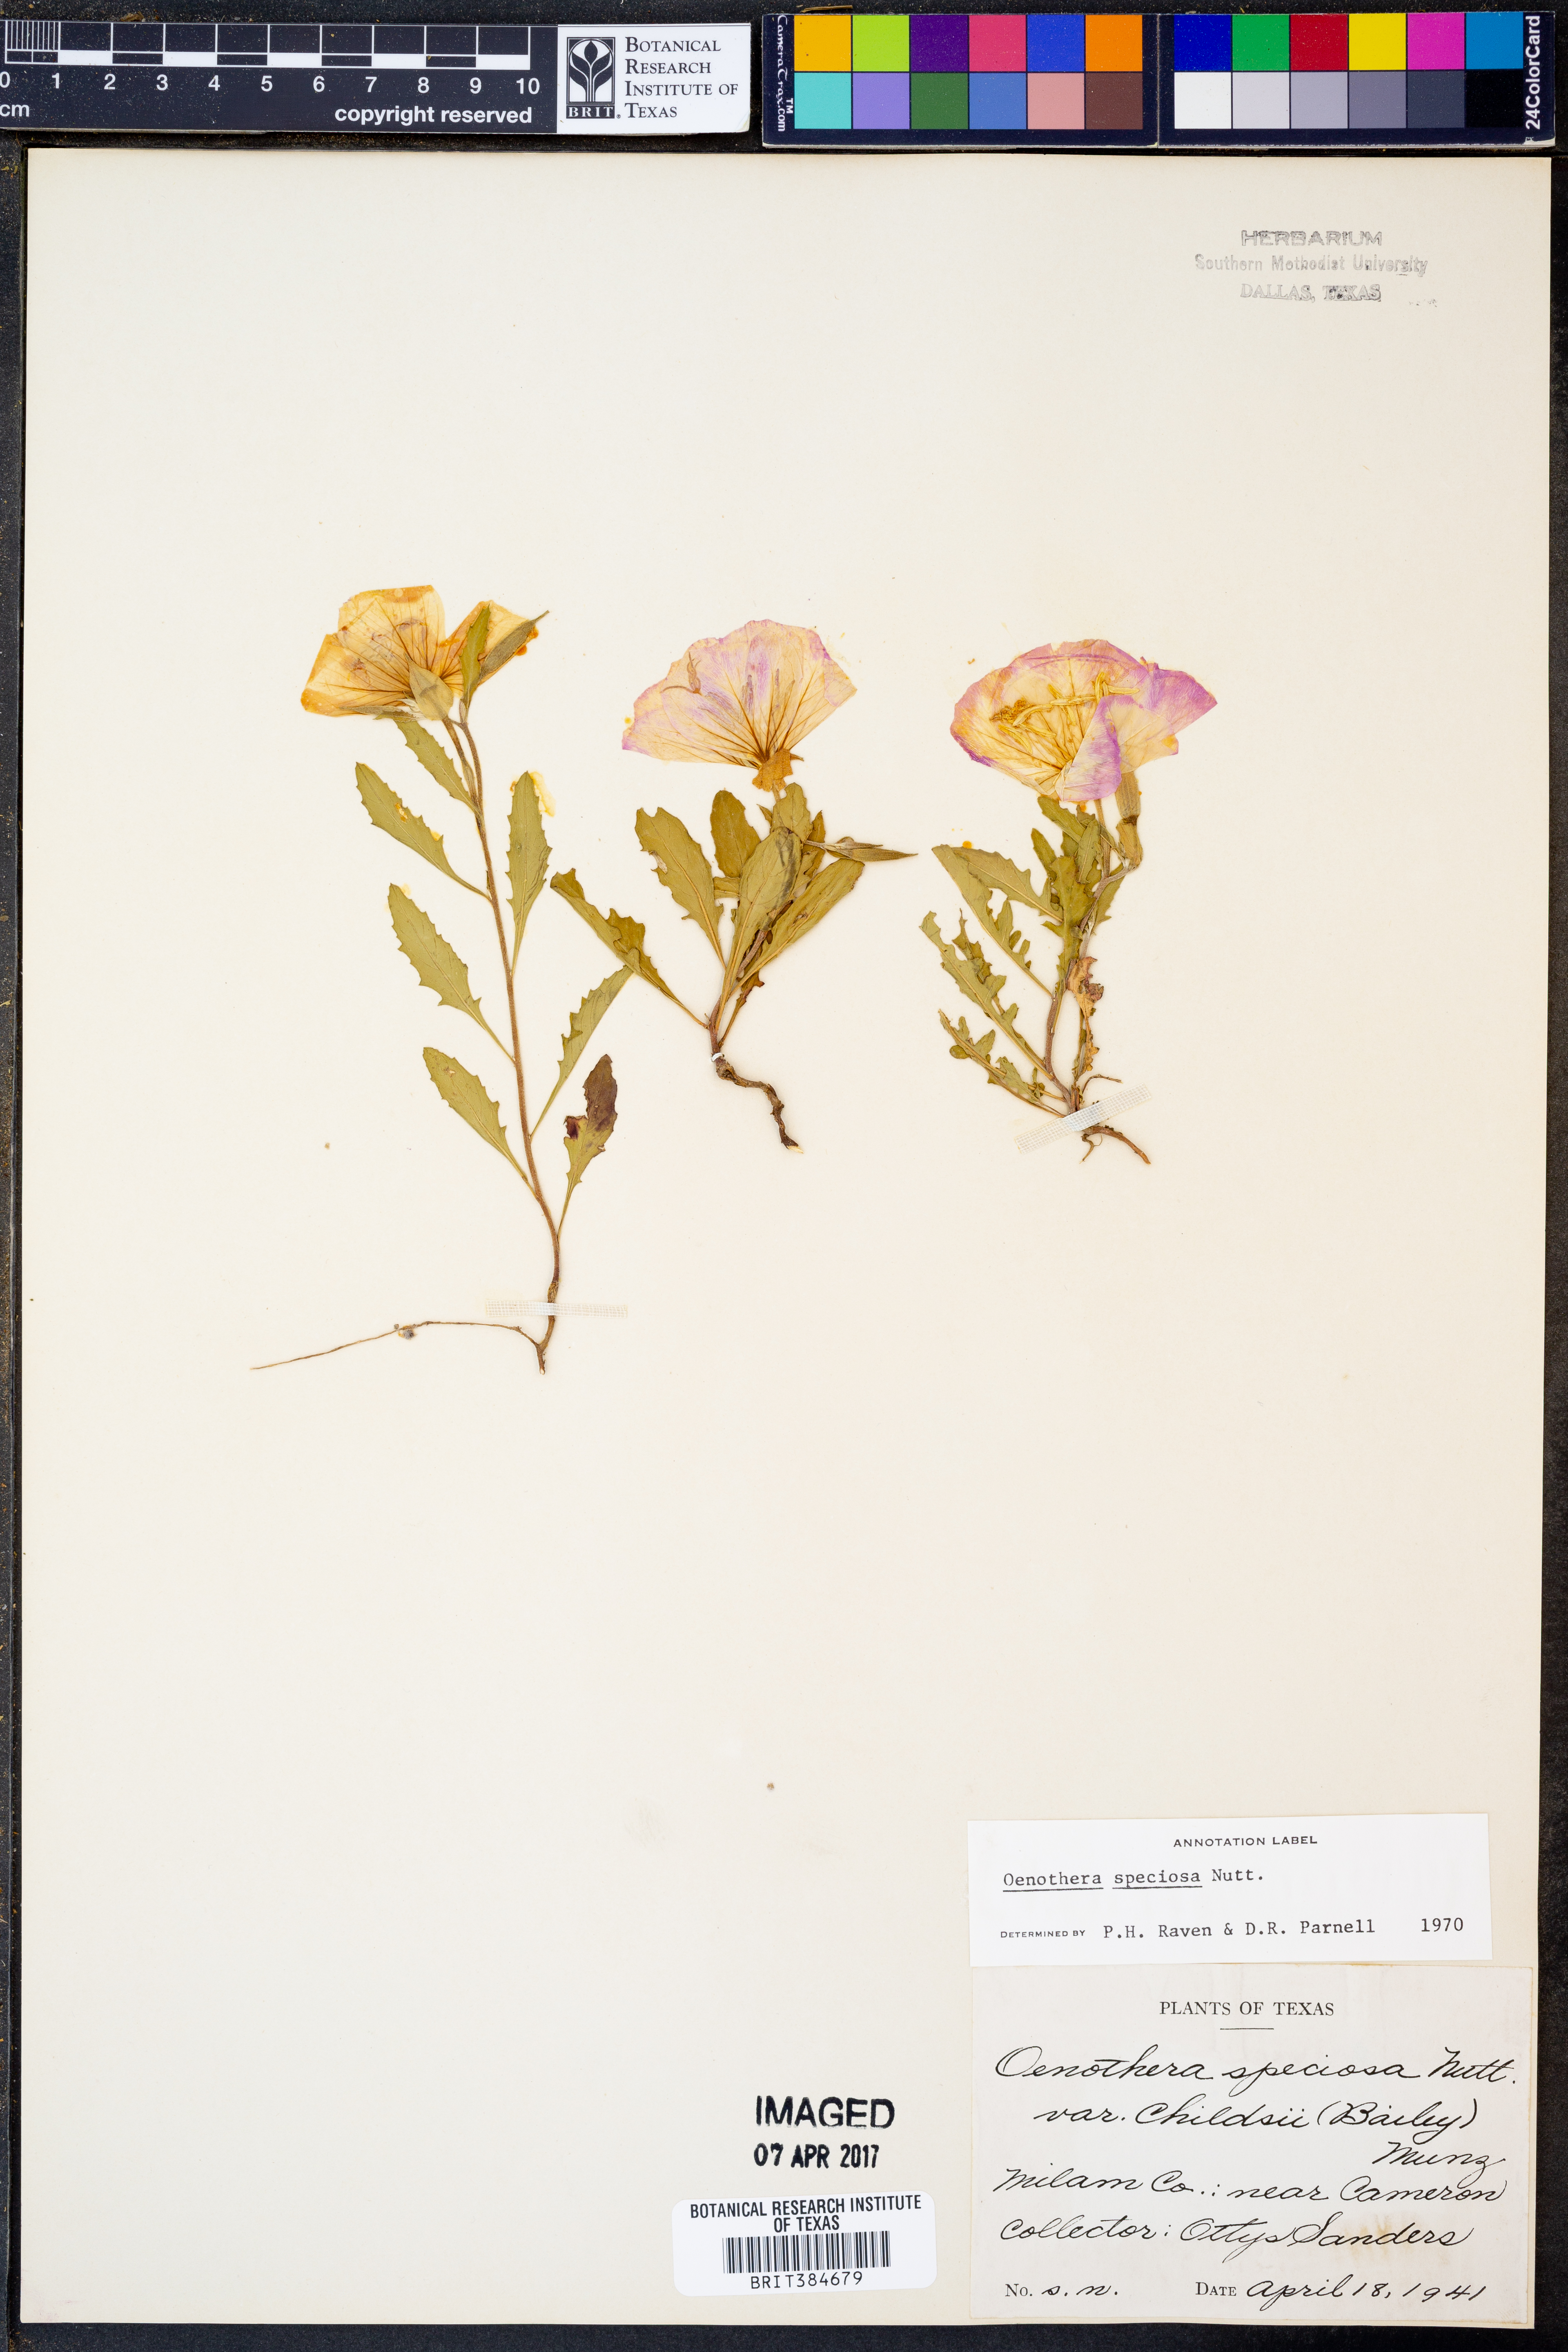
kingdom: Plantae
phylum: Tracheophyta
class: Magnoliopsida
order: Myrtales
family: Onagraceae
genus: Oenothera
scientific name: Oenothera speciosa
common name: White evening-primrose
